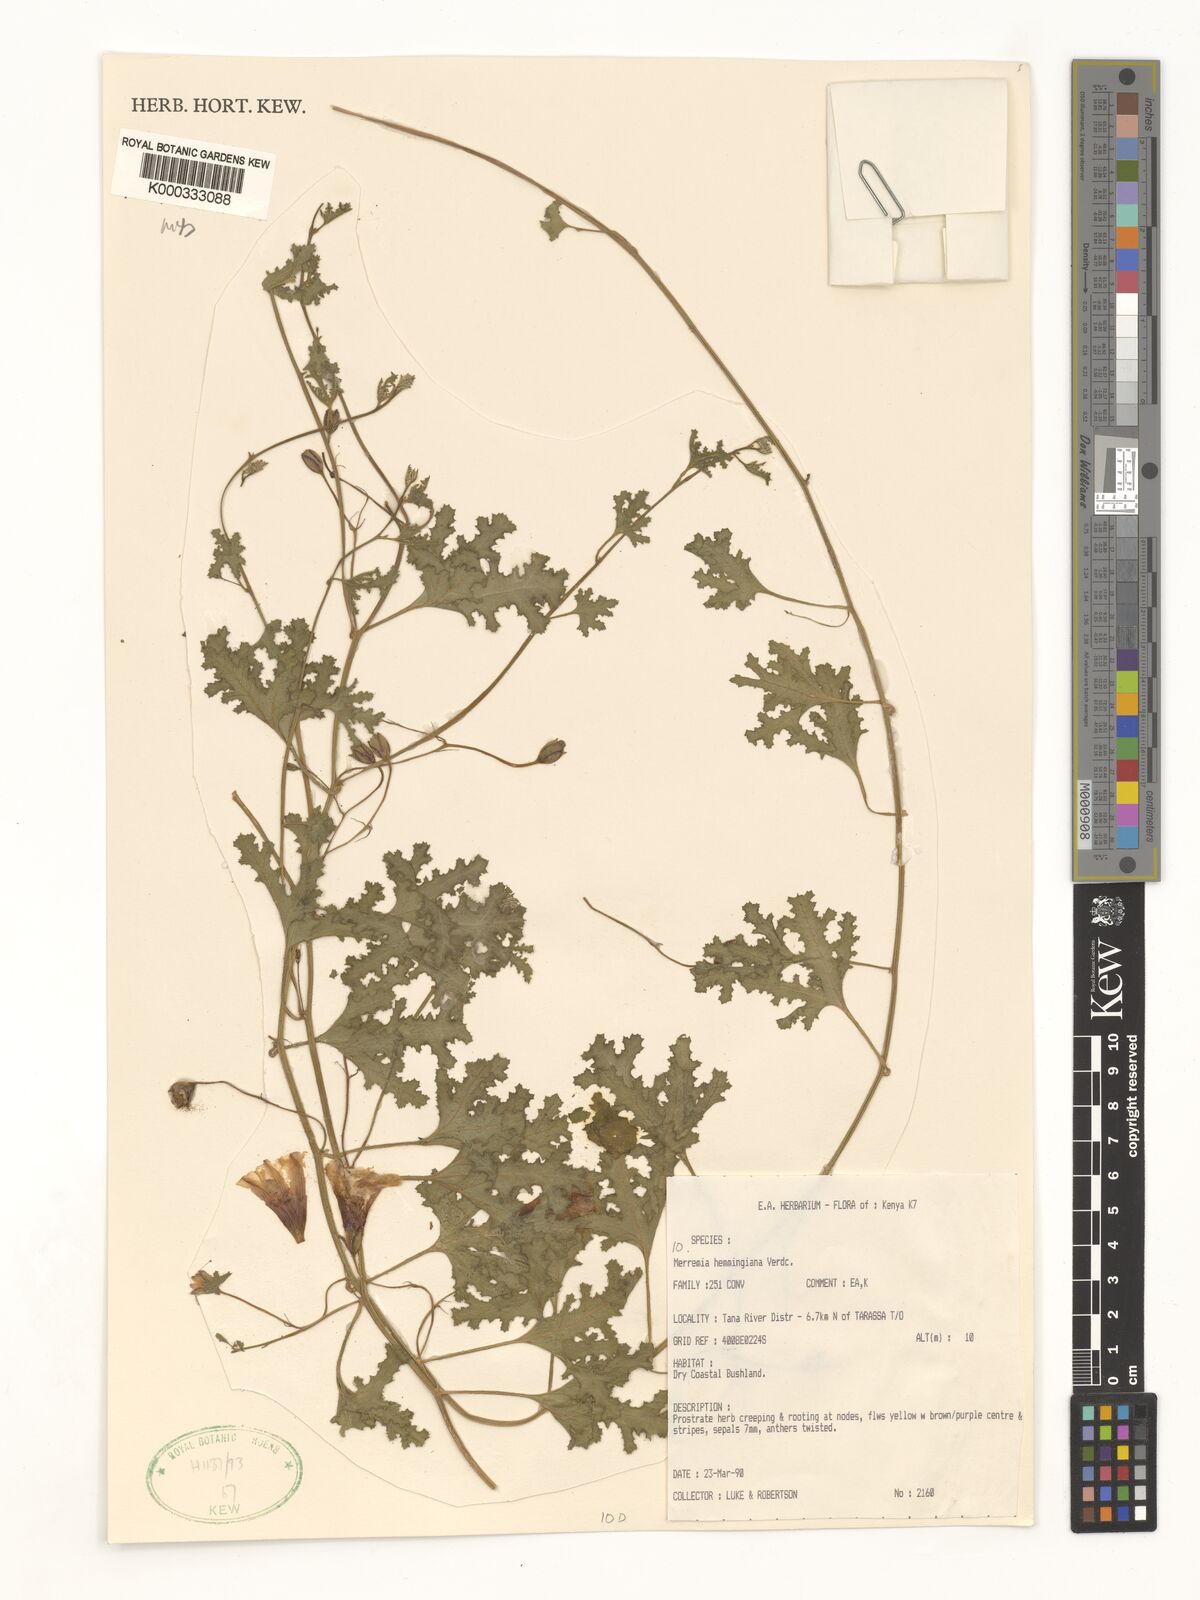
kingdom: Plantae
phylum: Tracheophyta
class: Magnoliopsida
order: Solanales
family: Convolvulaceae
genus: Merremia
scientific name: Merremia hemmingiana
